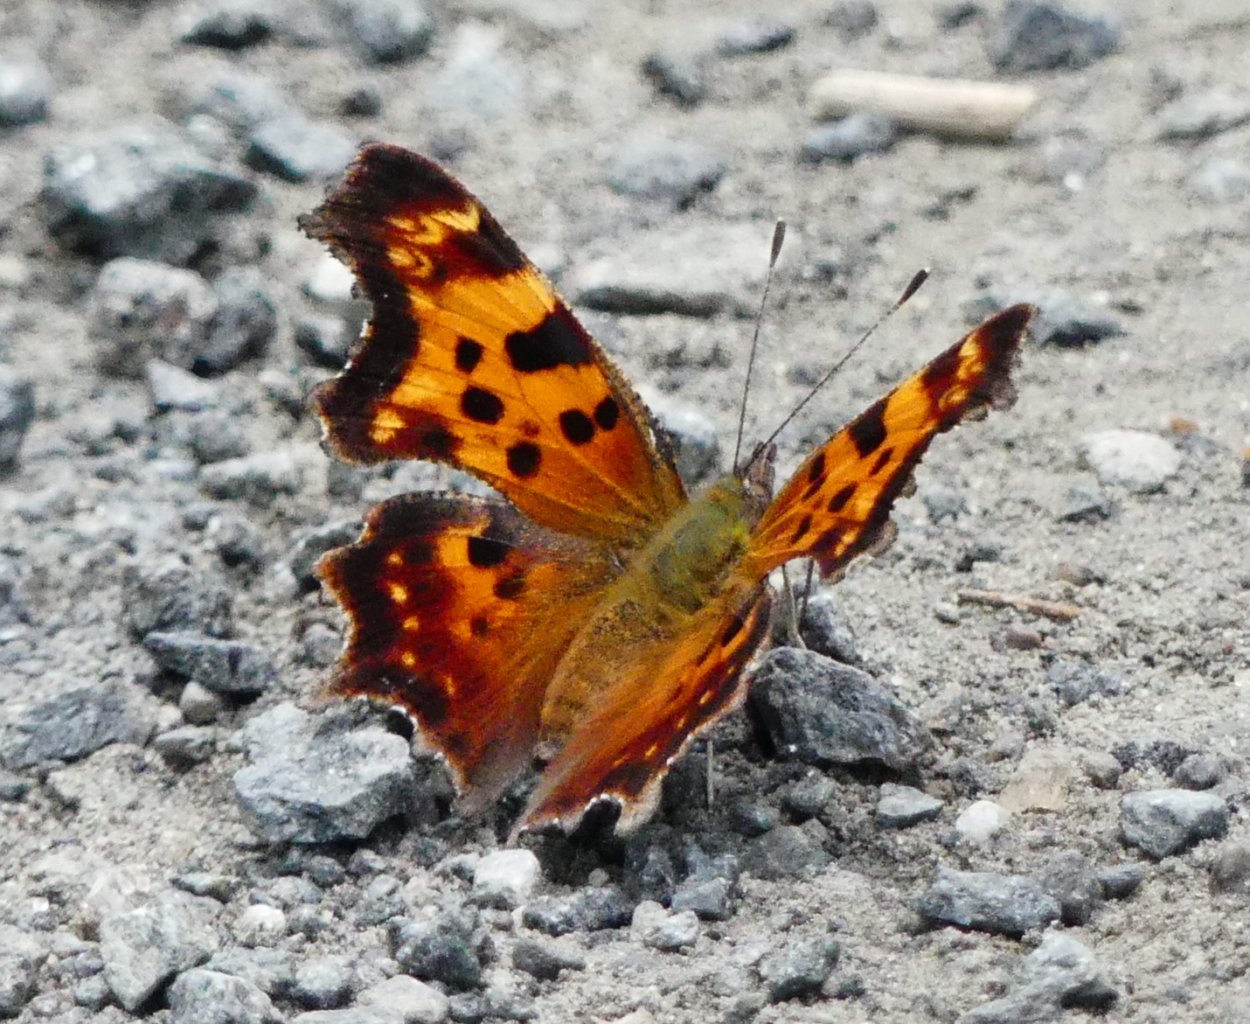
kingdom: Animalia
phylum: Arthropoda
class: Insecta
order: Lepidoptera
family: Nymphalidae
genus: Polygonia
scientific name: Polygonia faunus
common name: Green Comma
